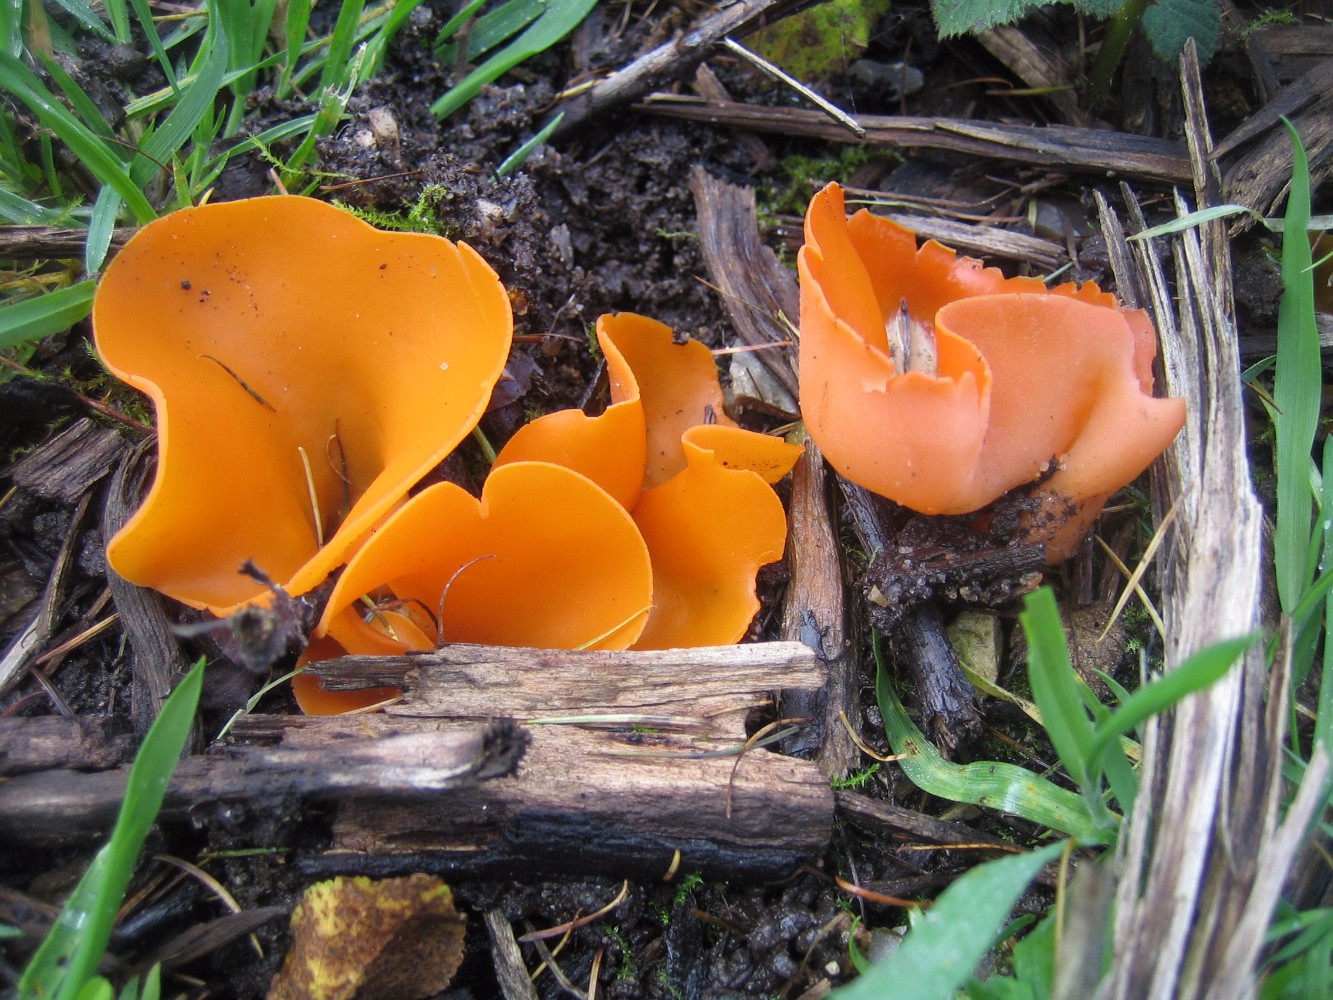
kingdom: Fungi
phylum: Ascomycota
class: Pezizomycetes
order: Pezizales
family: Pyronemataceae
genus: Aleuria
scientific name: Aleuria aurantia
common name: almindelig orangebæger
